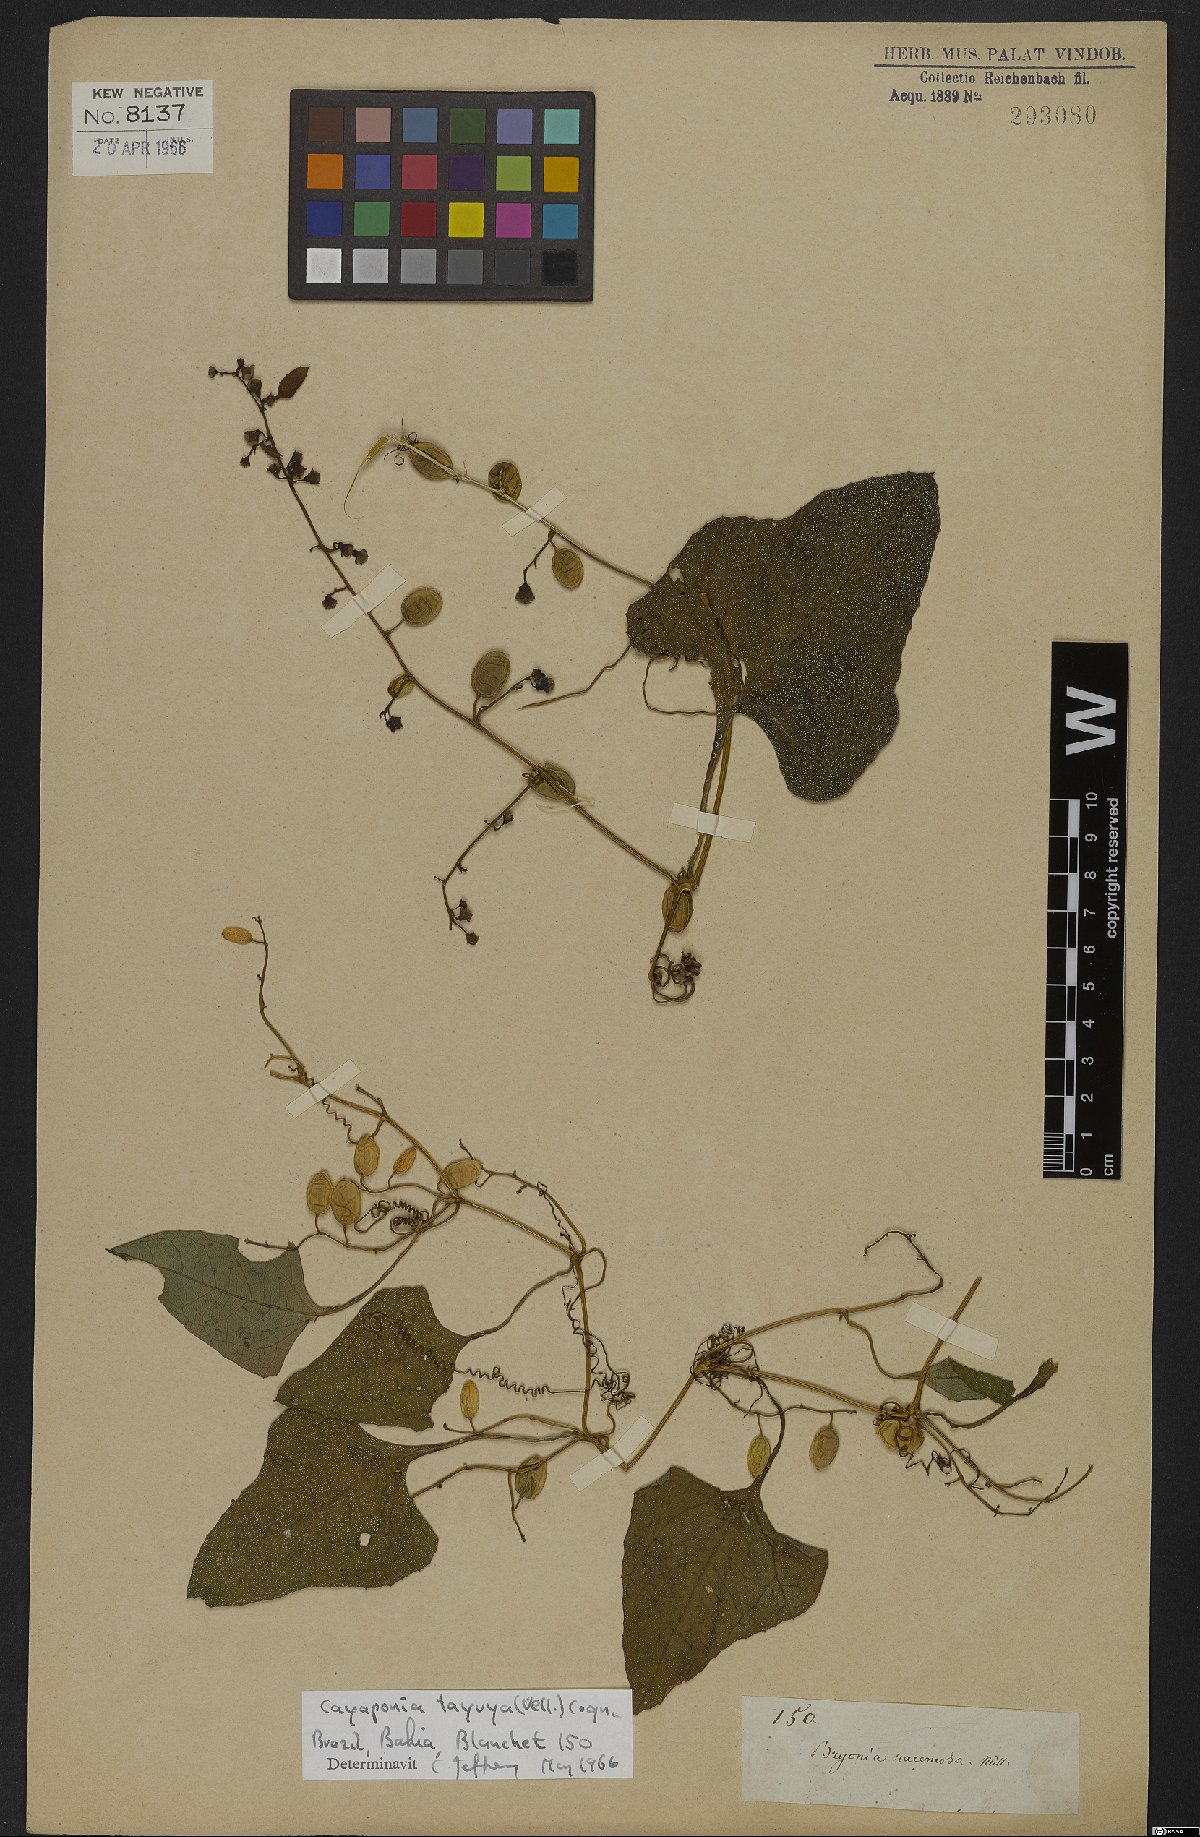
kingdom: Plantae
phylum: Tracheophyta
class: Magnoliopsida
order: Cucurbitales
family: Cucurbitaceae
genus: Cayaponia
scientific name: Cayaponia tayuya
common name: Tayuya
